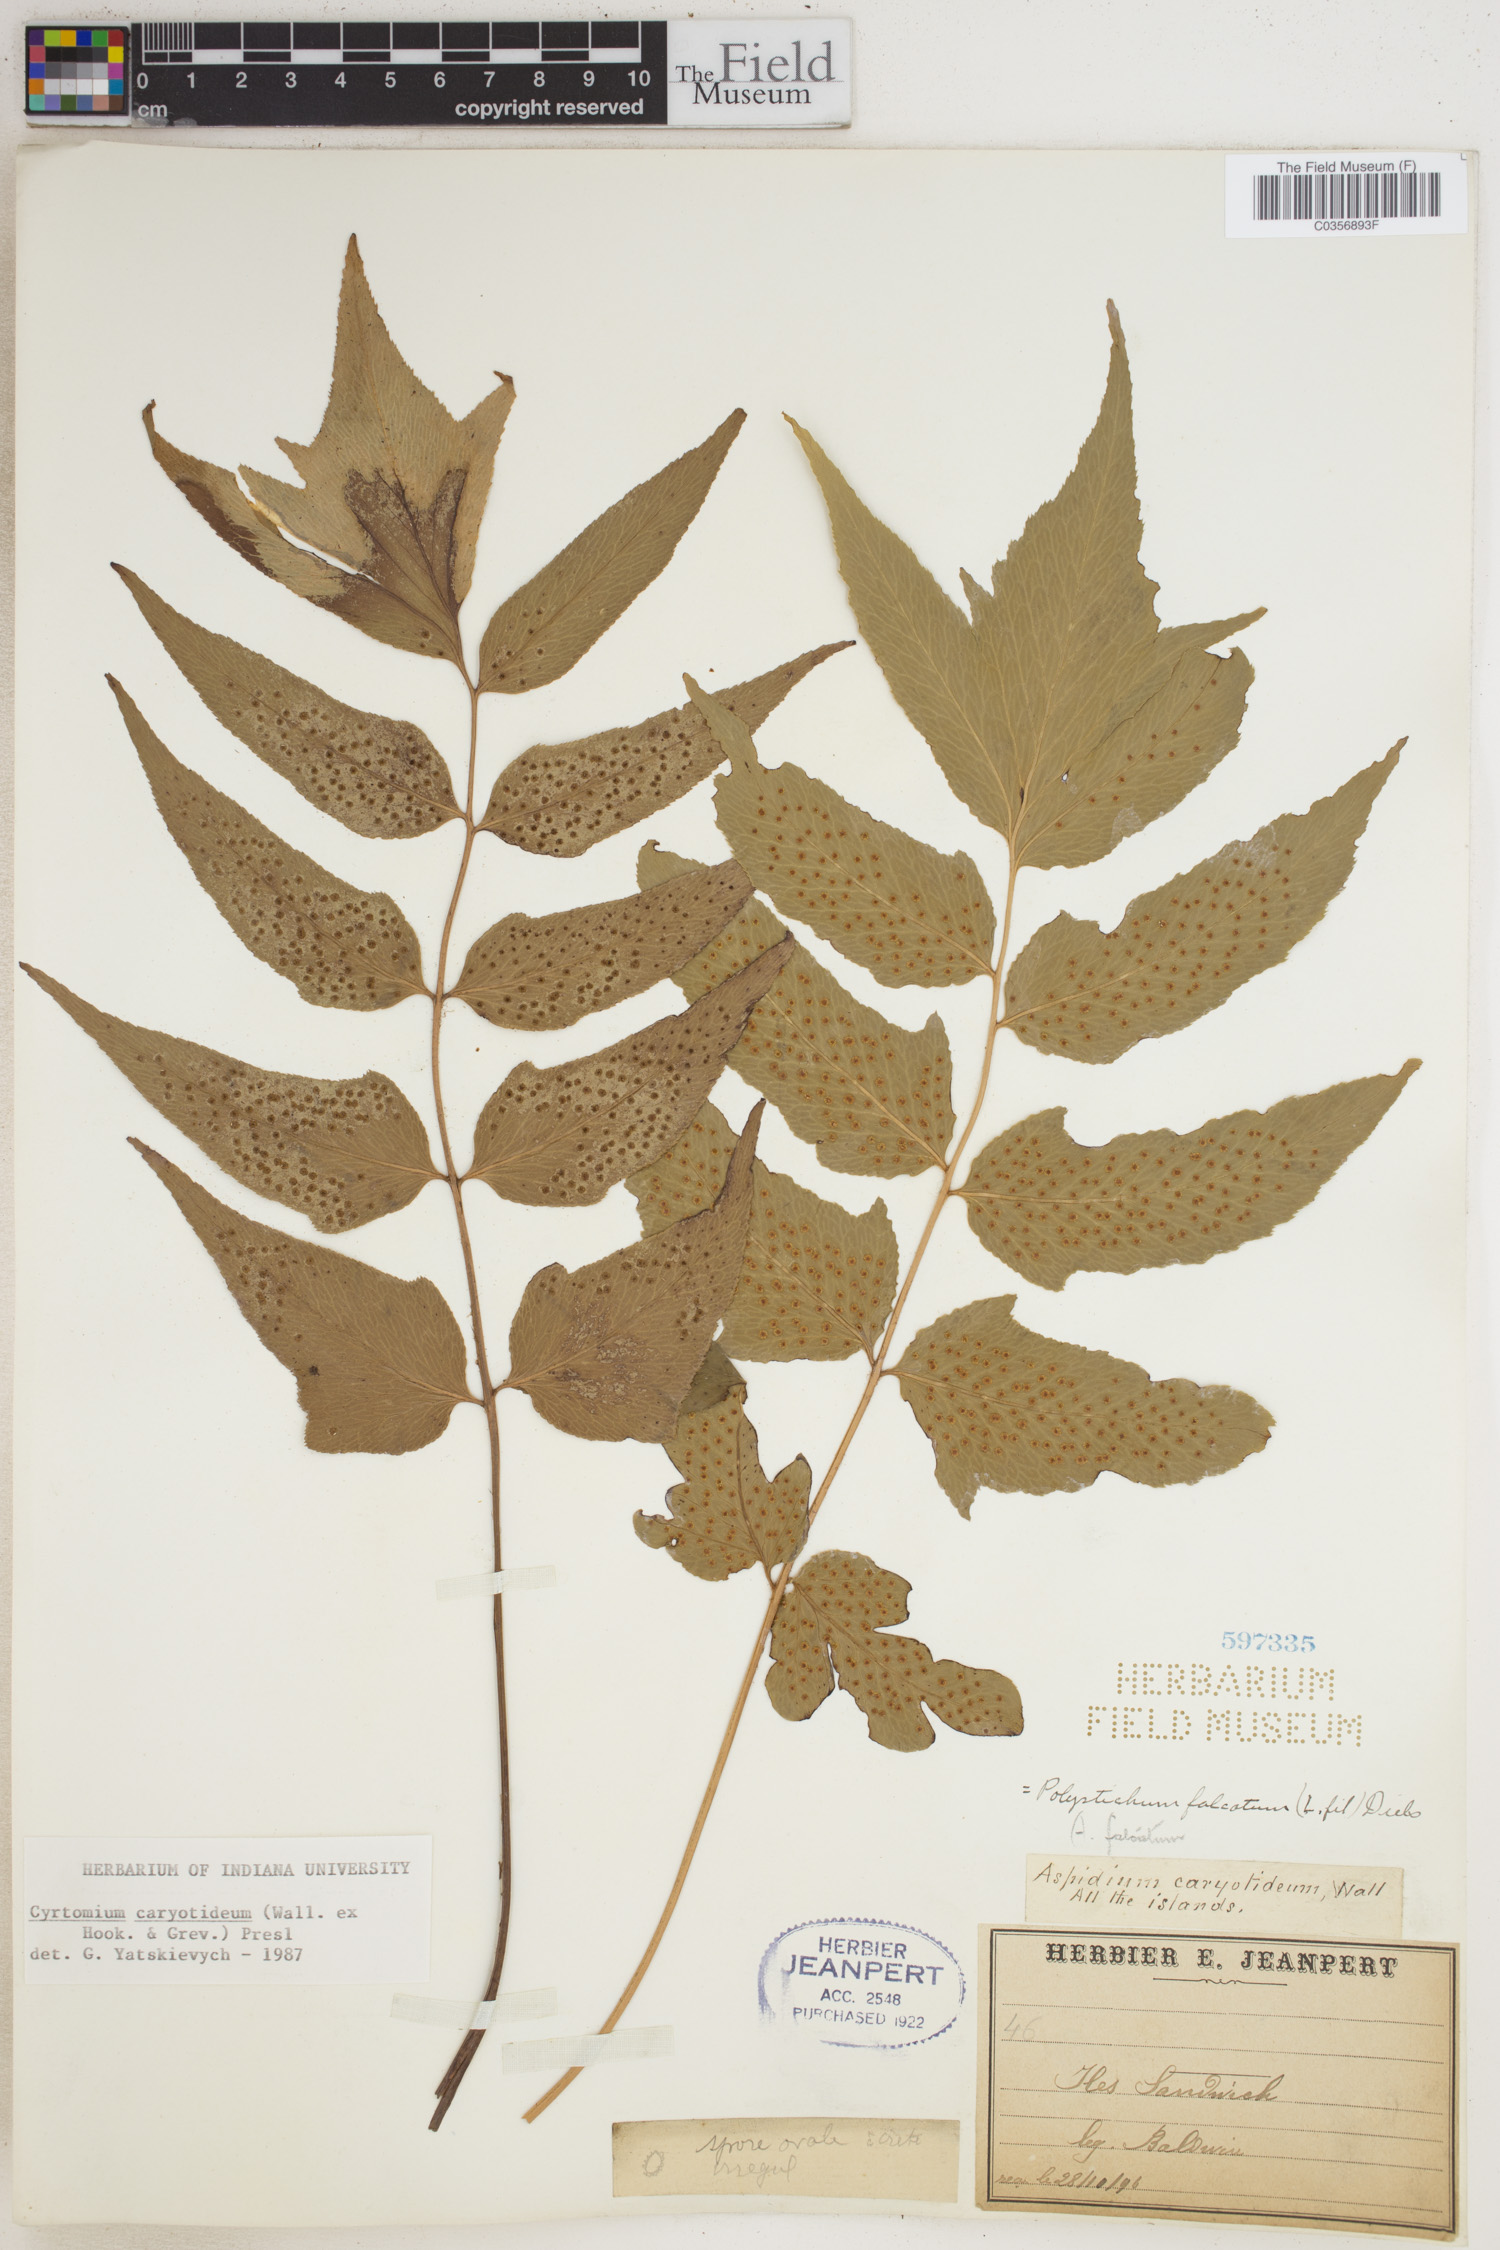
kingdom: Plantae
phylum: Tracheophyta
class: Polypodiopsida
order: Polypodiales
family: Dryopteridaceae
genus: Cyrtomium
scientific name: Cyrtomium caryotideum
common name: Asiatic holly fern
